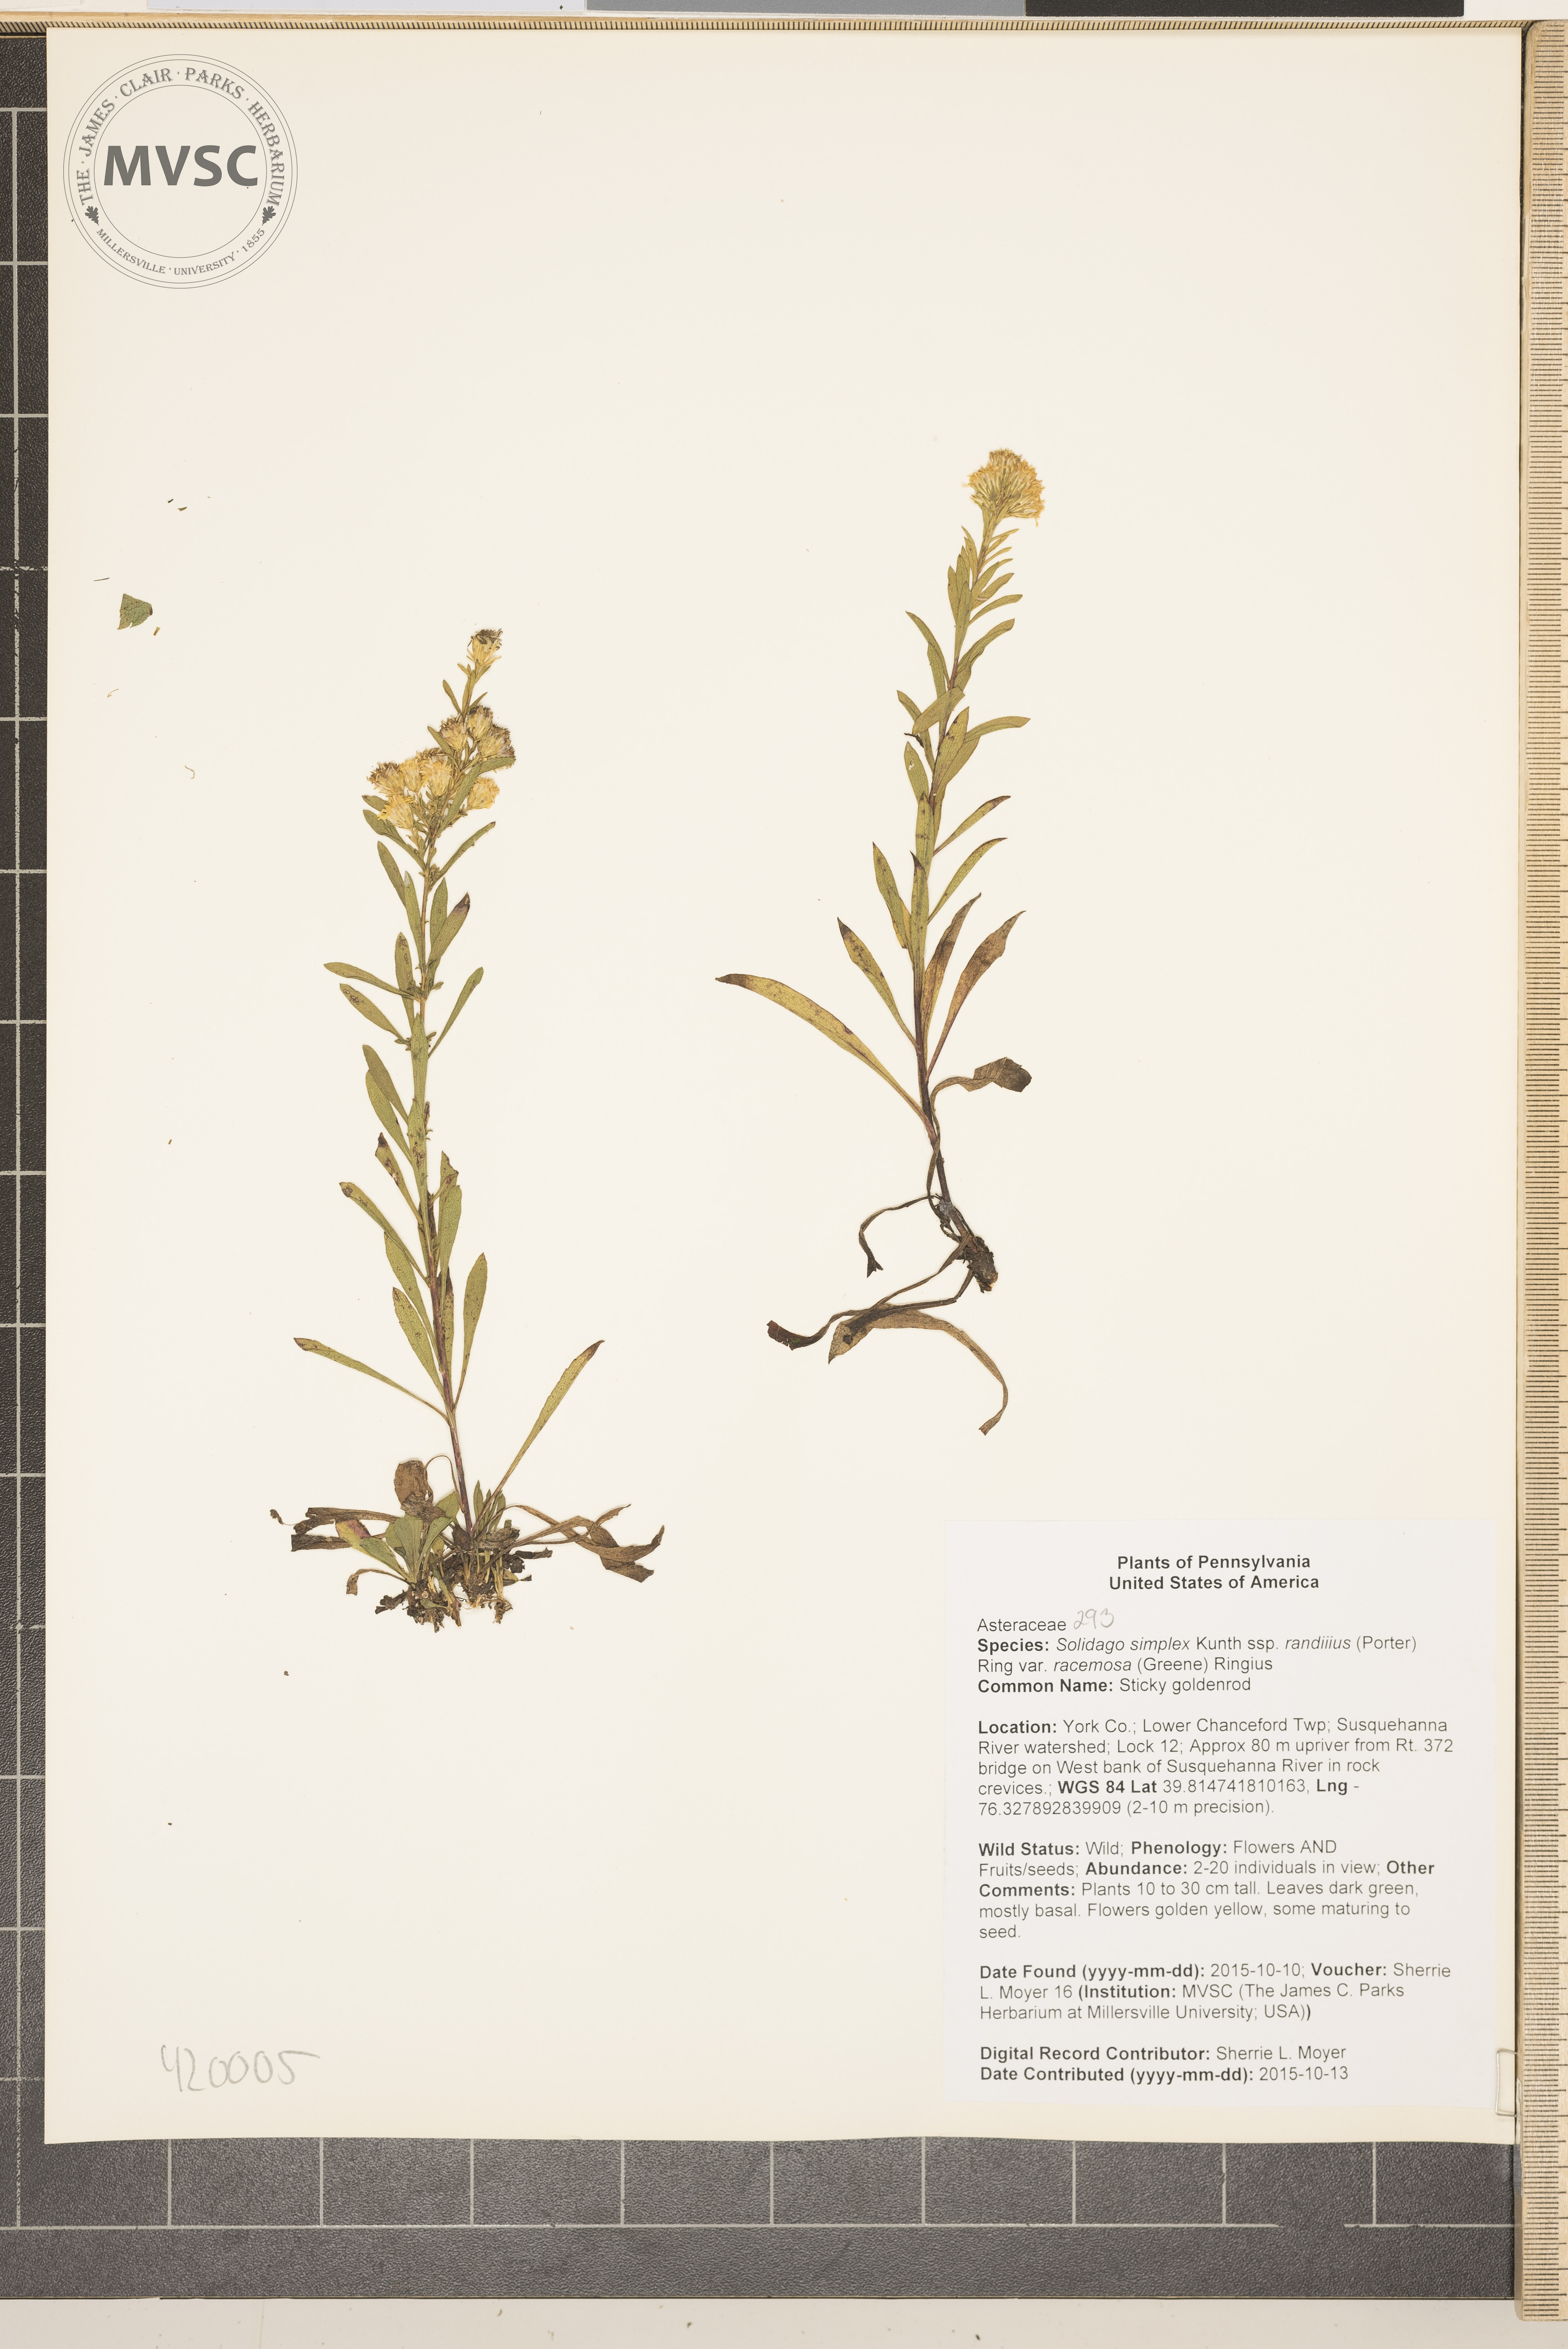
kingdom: Plantae
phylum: Tracheophyta
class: Magnoliopsida
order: Asterales
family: Asteraceae
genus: Solidago
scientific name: Solidago simplex
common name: Sticky goldenrod
